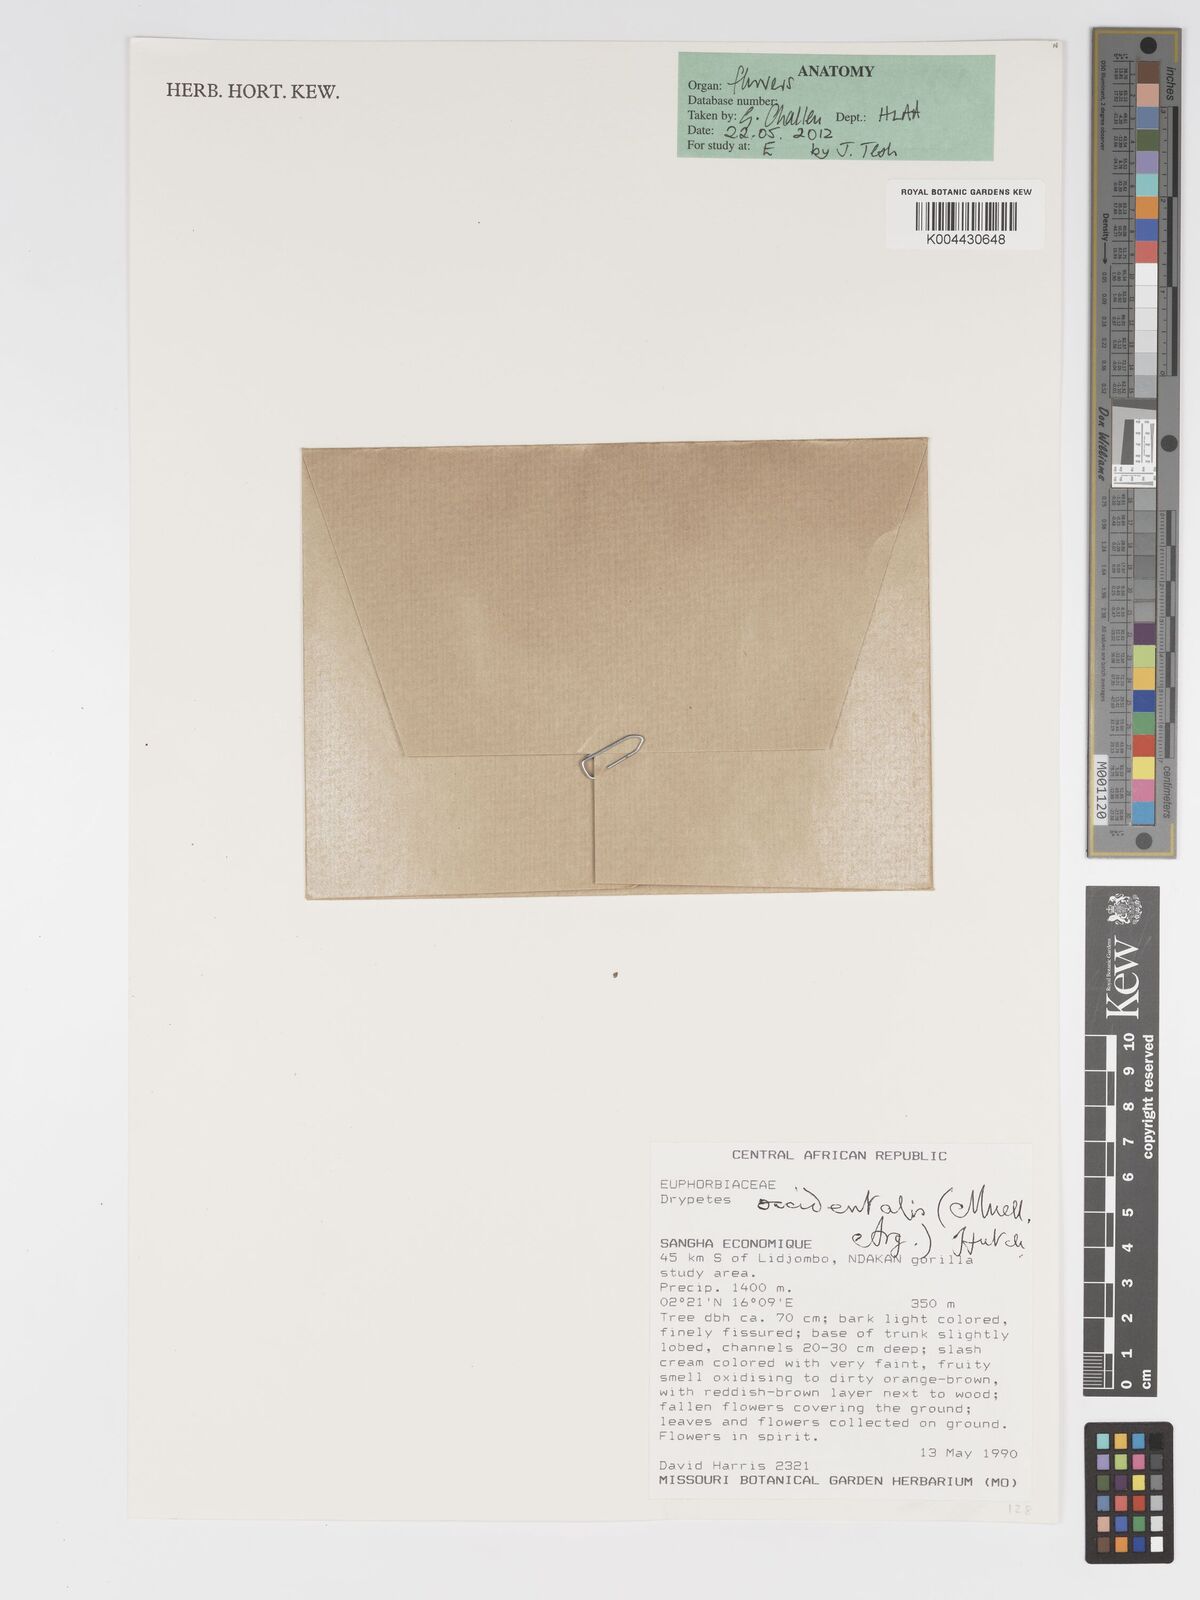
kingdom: Plantae
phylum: Tracheophyta
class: Magnoliopsida
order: Malpighiales
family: Putranjivaceae
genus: Drypetes
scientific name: Drypetes occidentalis
